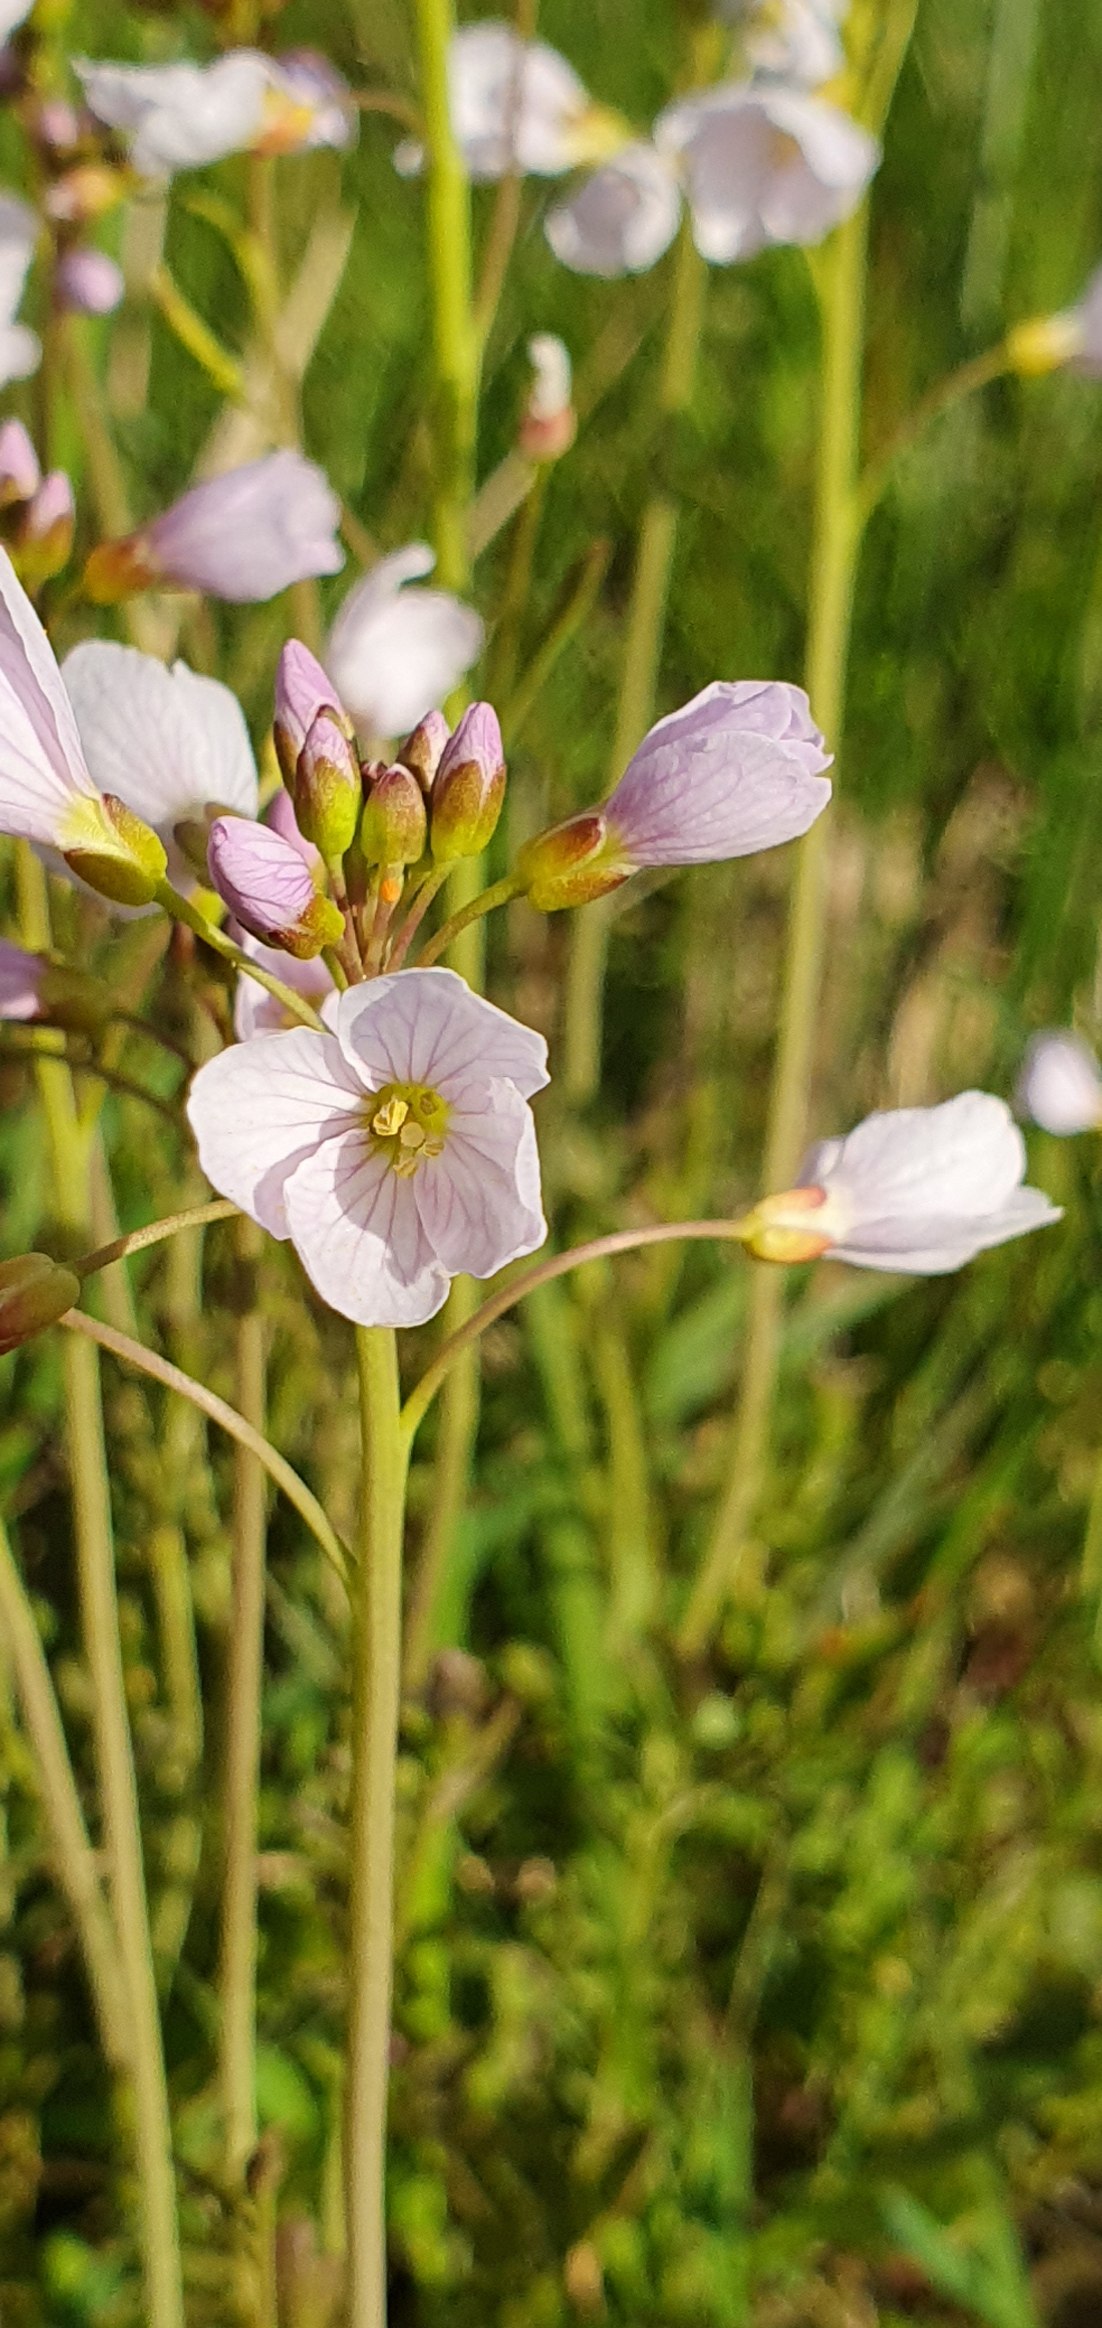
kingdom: Plantae
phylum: Tracheophyta
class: Magnoliopsida
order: Brassicales
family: Brassicaceae
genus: Cardamine
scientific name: Cardamine pratensis
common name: Engkarse
